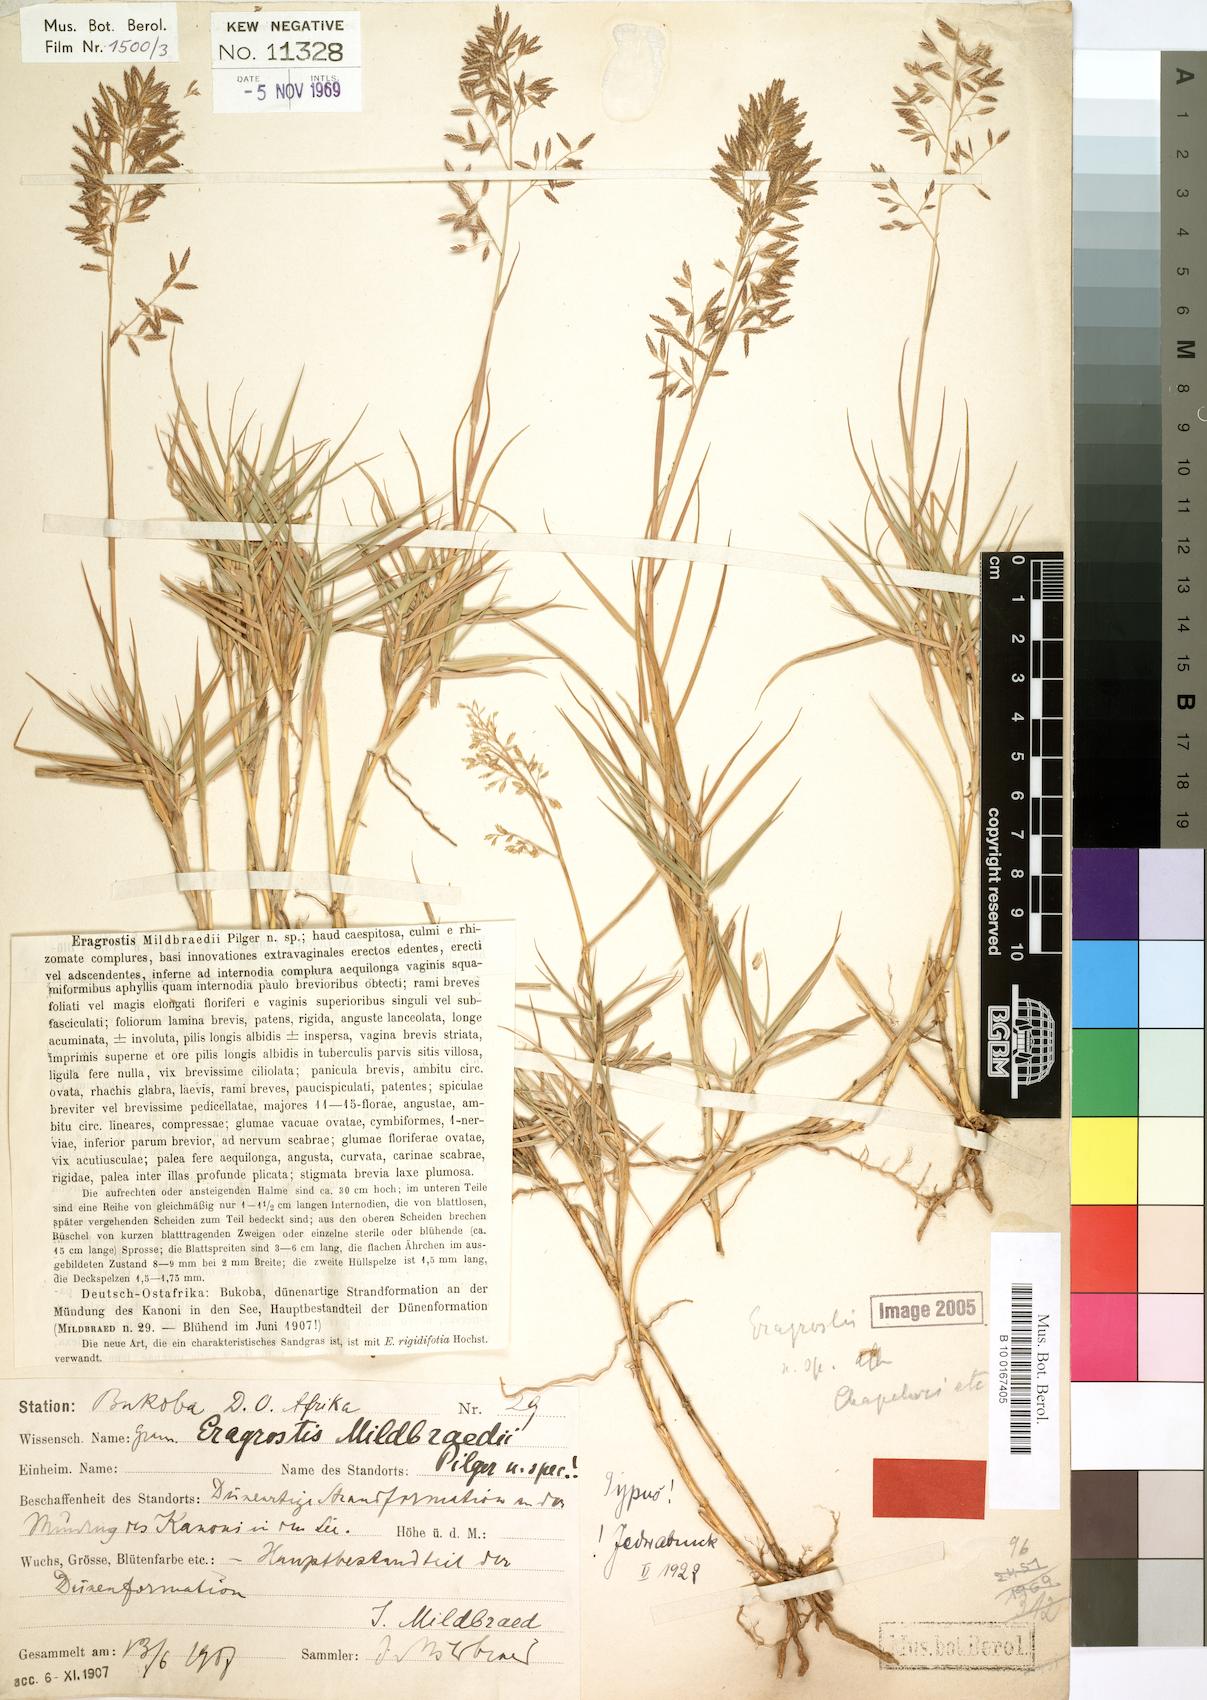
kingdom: Plantae
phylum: Tracheophyta
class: Liliopsida
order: Poales
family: Poaceae
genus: Eragrostis
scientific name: Eragrostis mildbraedii
